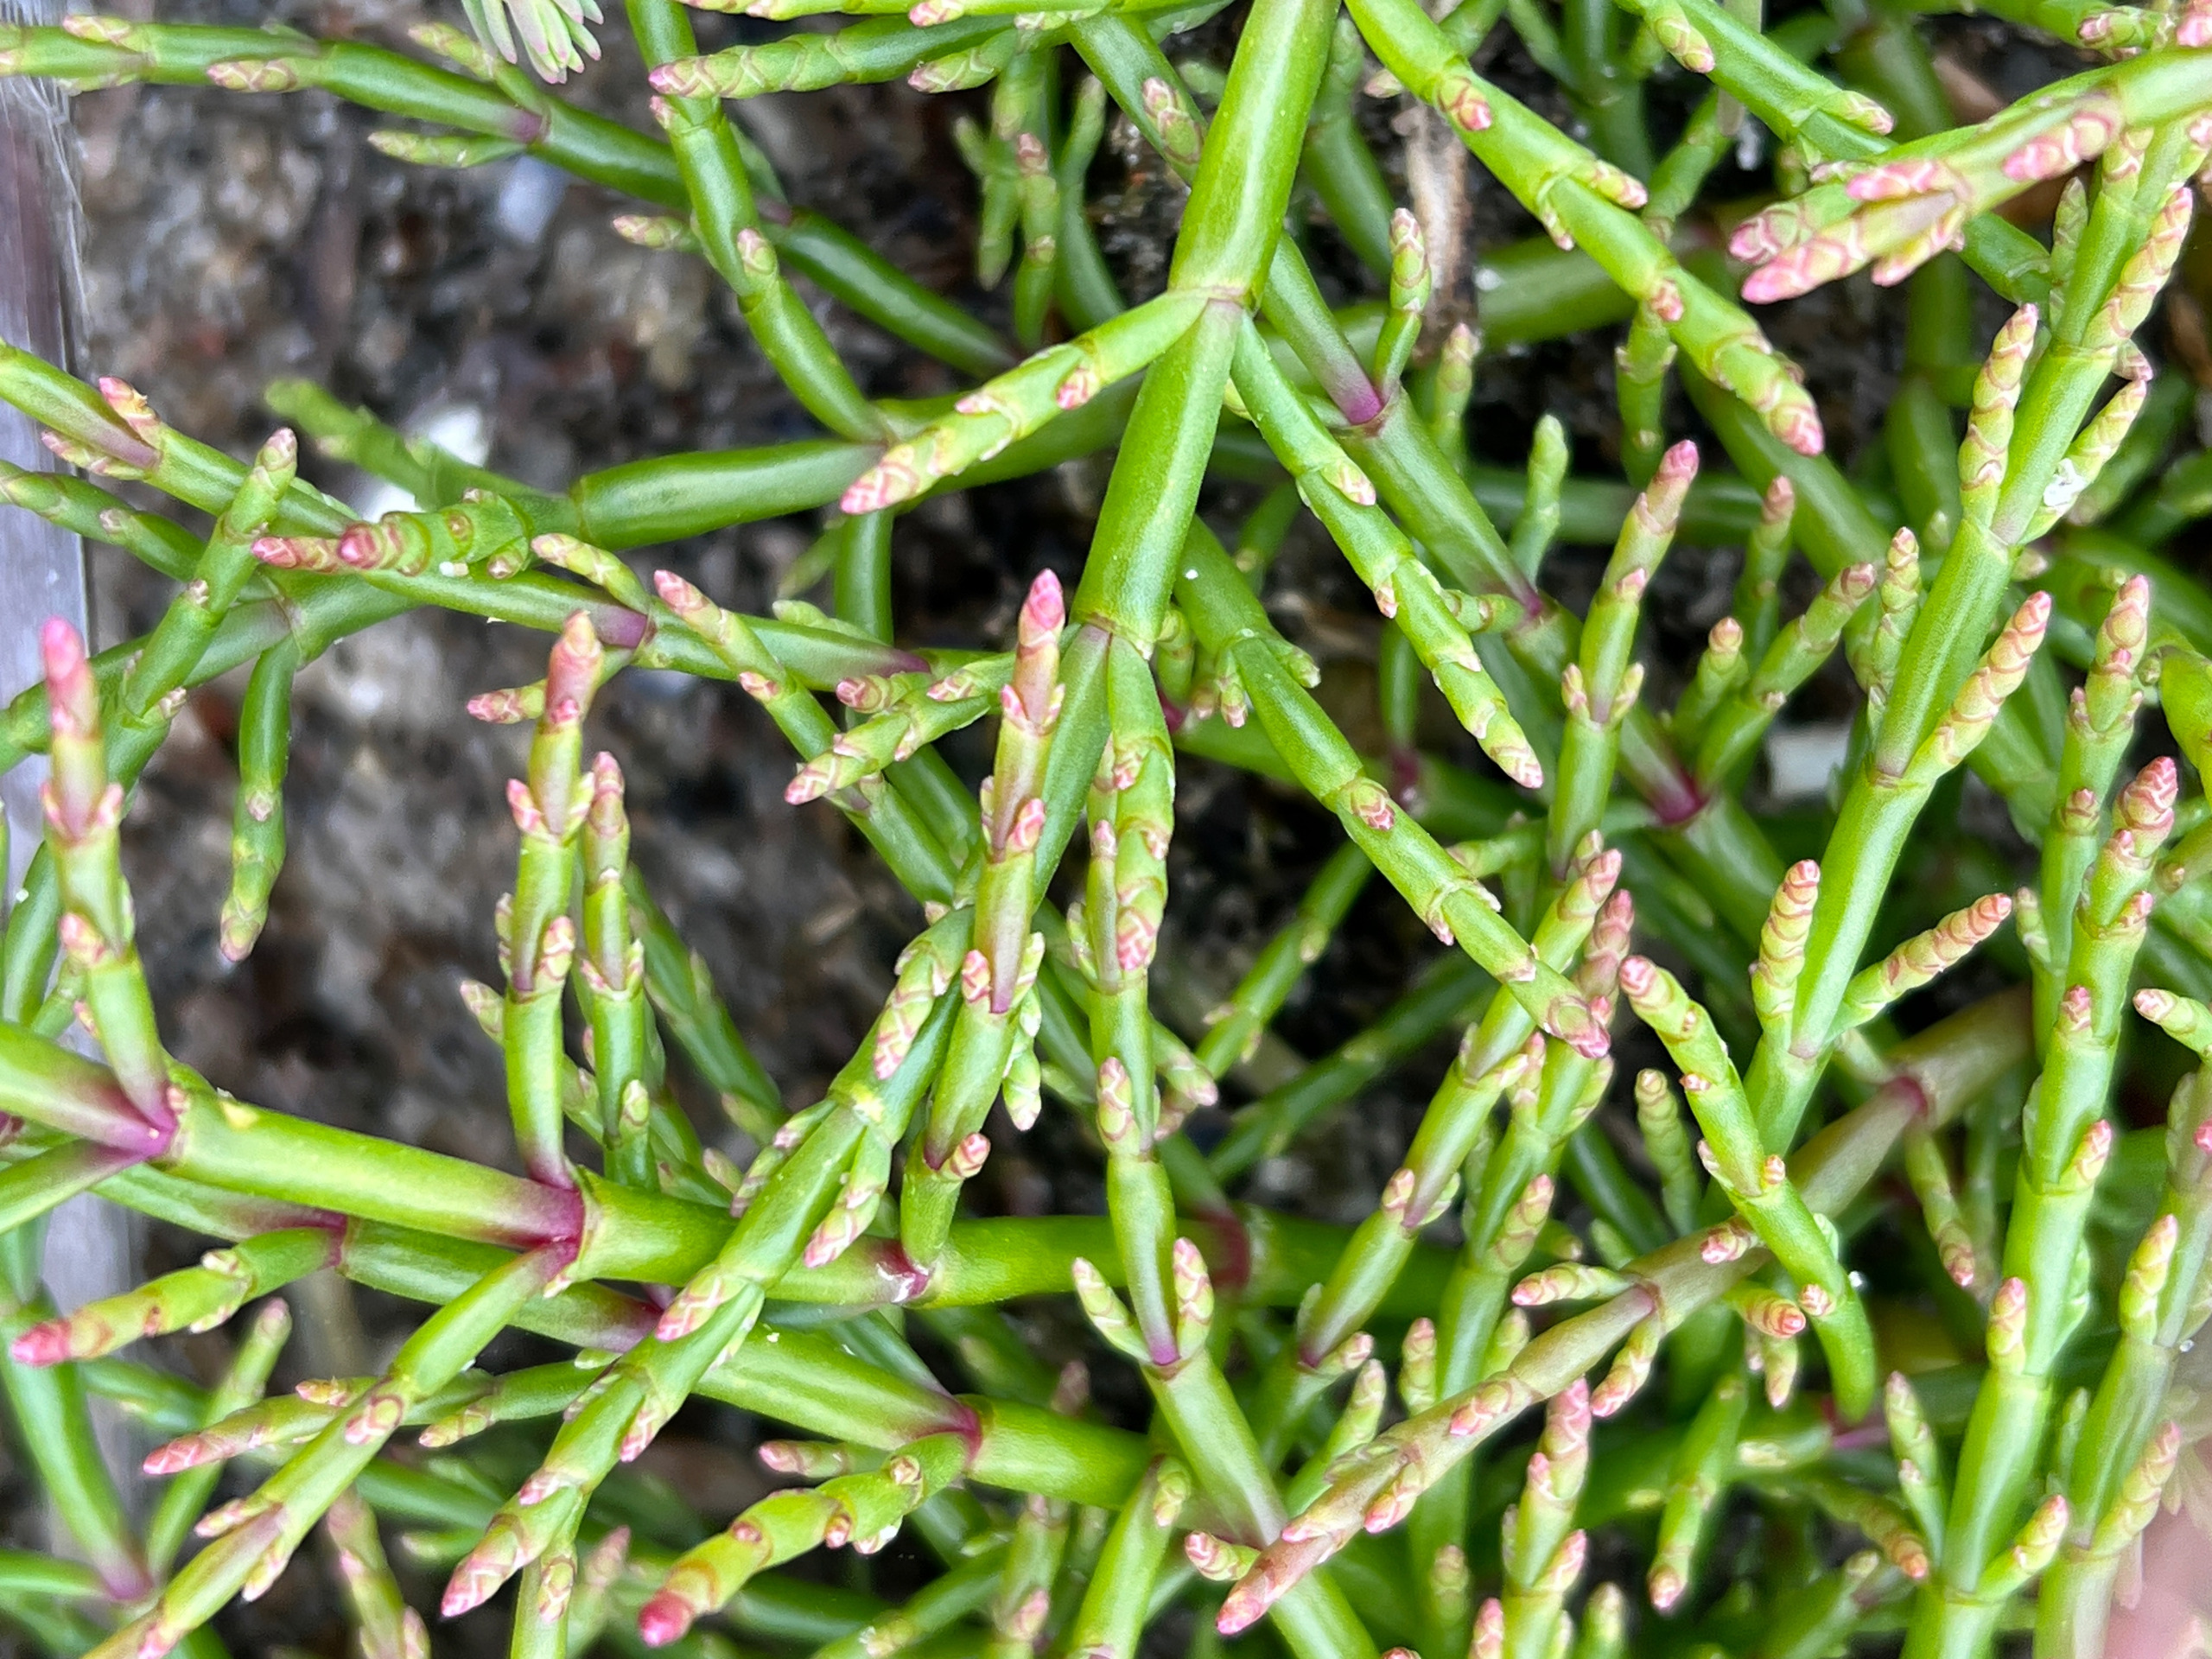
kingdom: Plantae
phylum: Tracheophyta
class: Magnoliopsida
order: Caryophyllales
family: Amaranthaceae
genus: Salicornia
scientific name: Salicornia europaea
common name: Almindelig salturt
